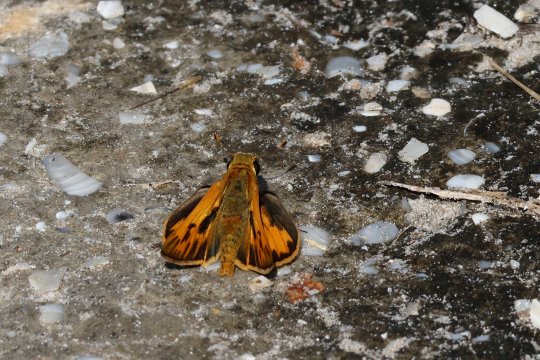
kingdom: Animalia
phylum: Arthropoda
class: Insecta
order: Lepidoptera
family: Hesperiidae
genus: Hylephila
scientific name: Hylephila phyleus
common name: Fiery Skipper
